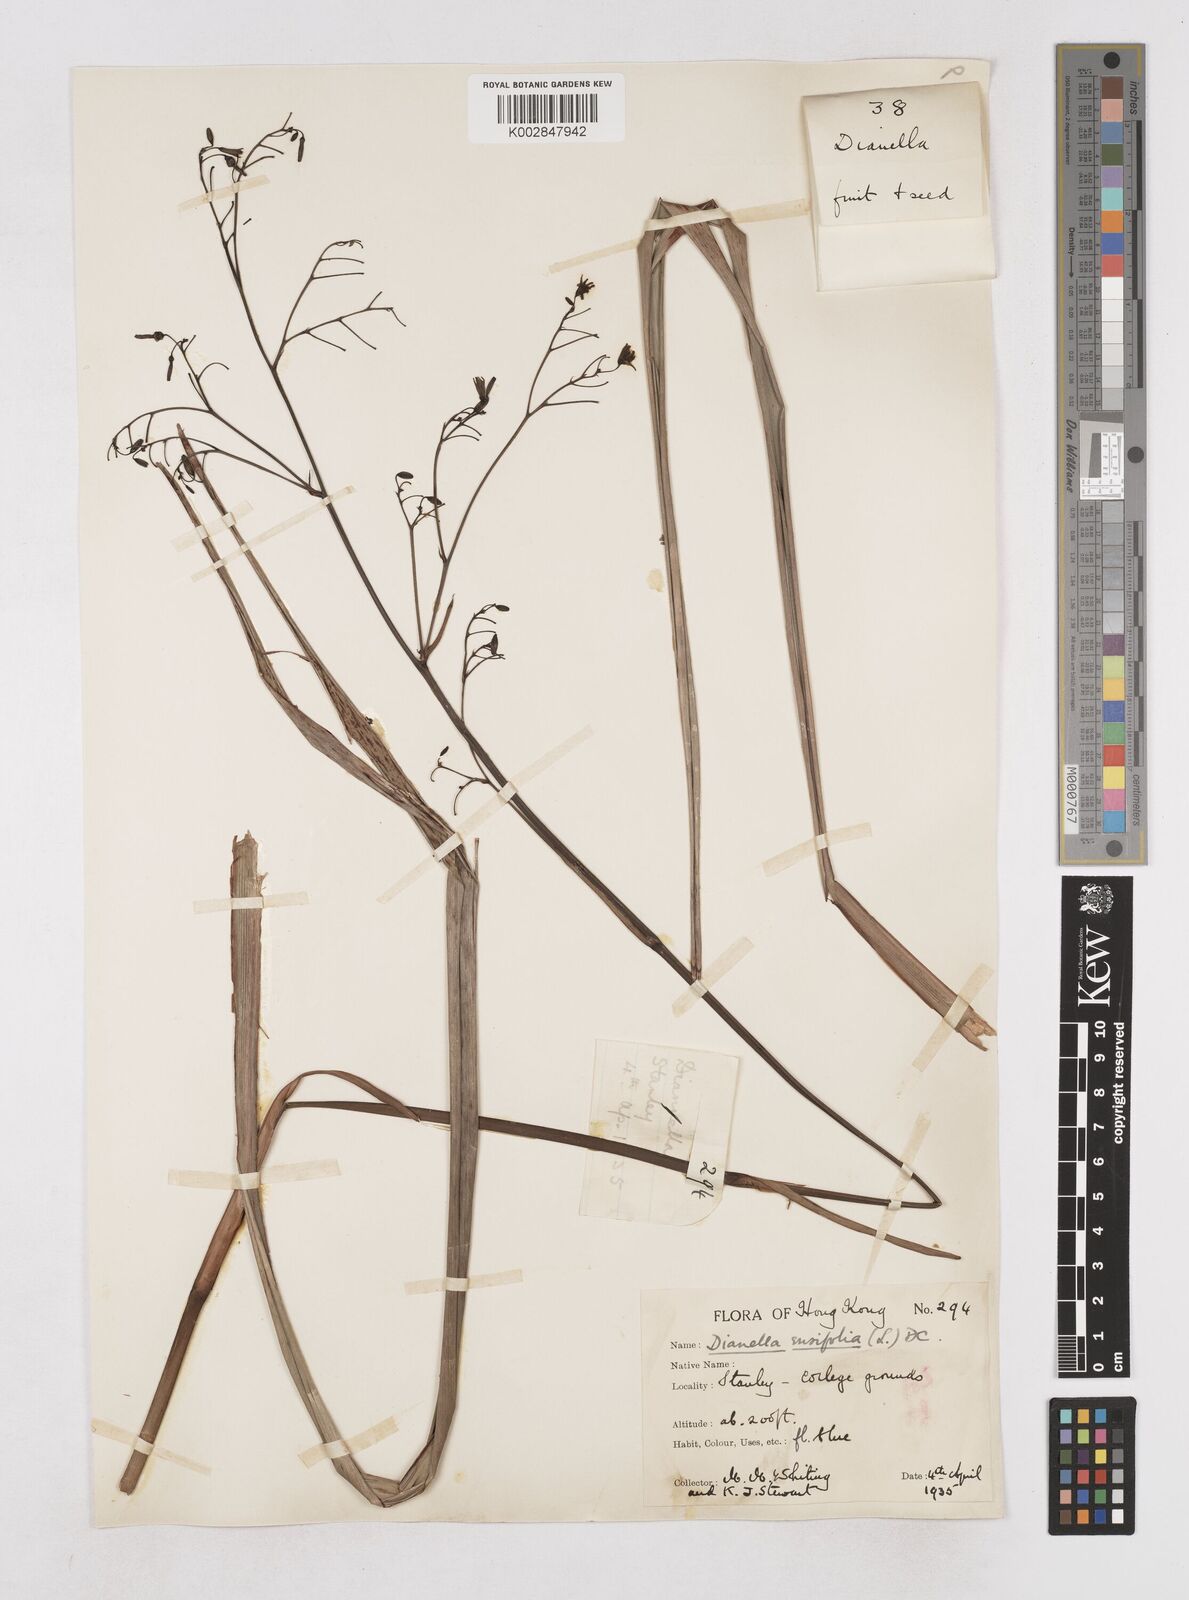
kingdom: Plantae
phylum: Tracheophyta
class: Liliopsida
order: Asparagales
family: Asphodelaceae
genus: Dianella
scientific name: Dianella ensifolia
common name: New zealand lilyplant
